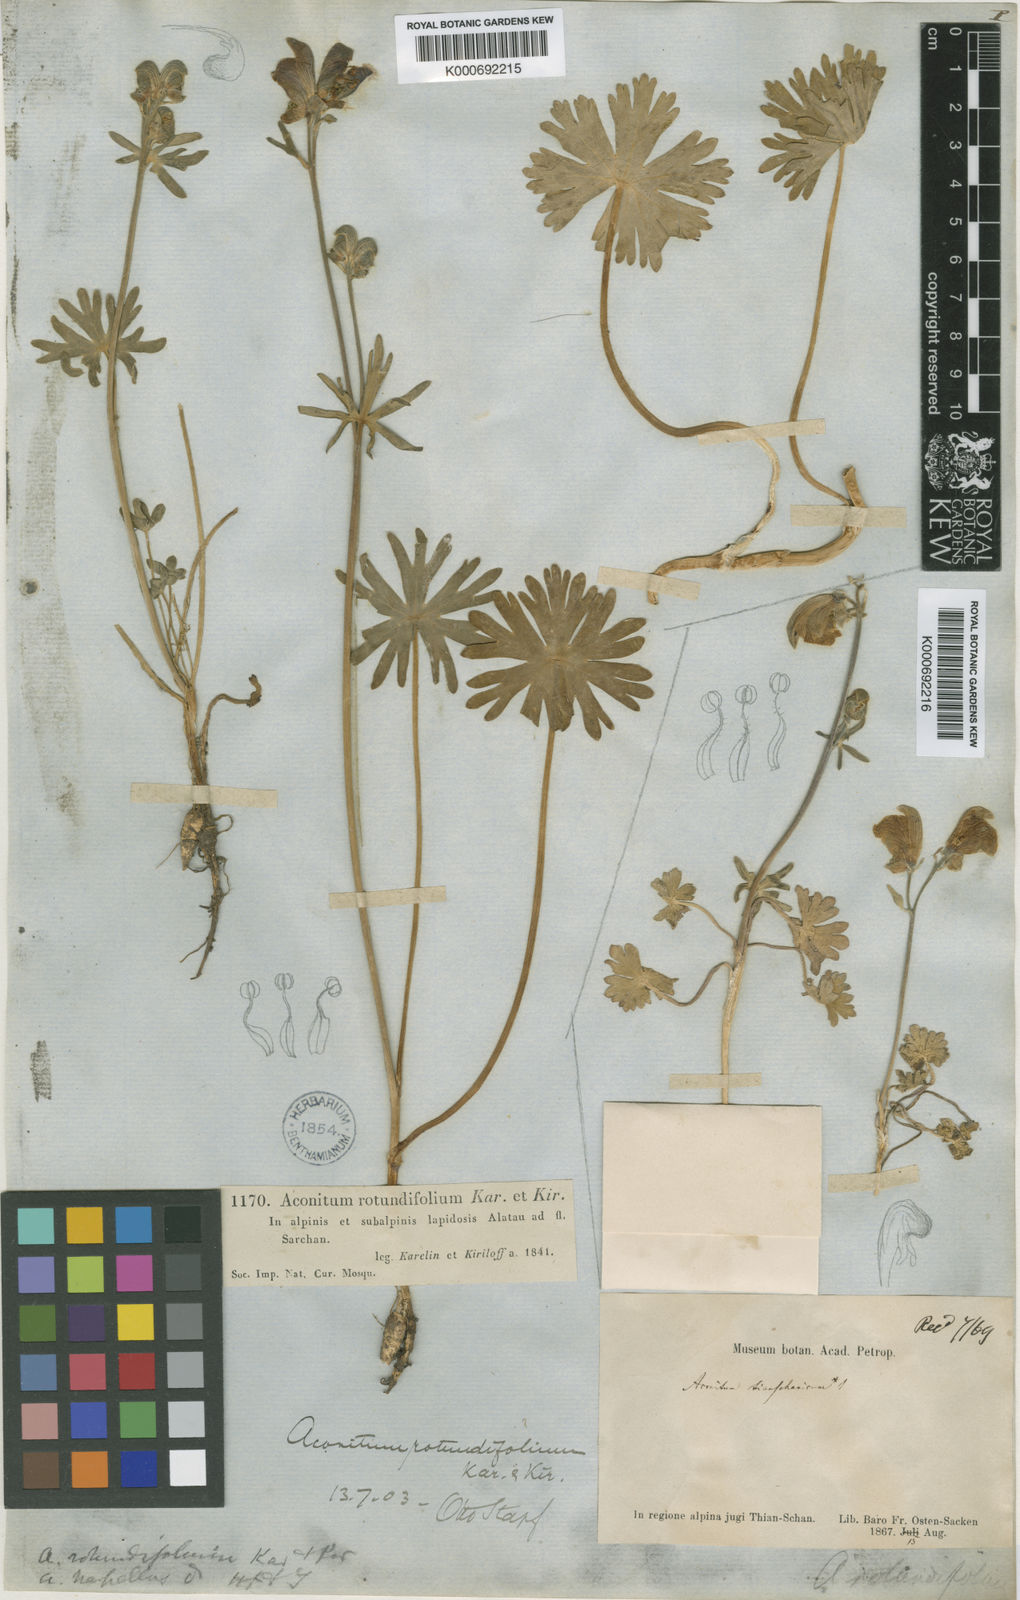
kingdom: Plantae
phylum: Tracheophyta
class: Magnoliopsida
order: Ranunculales
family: Ranunculaceae
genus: Aconitum
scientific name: Aconitum rotundifolium
